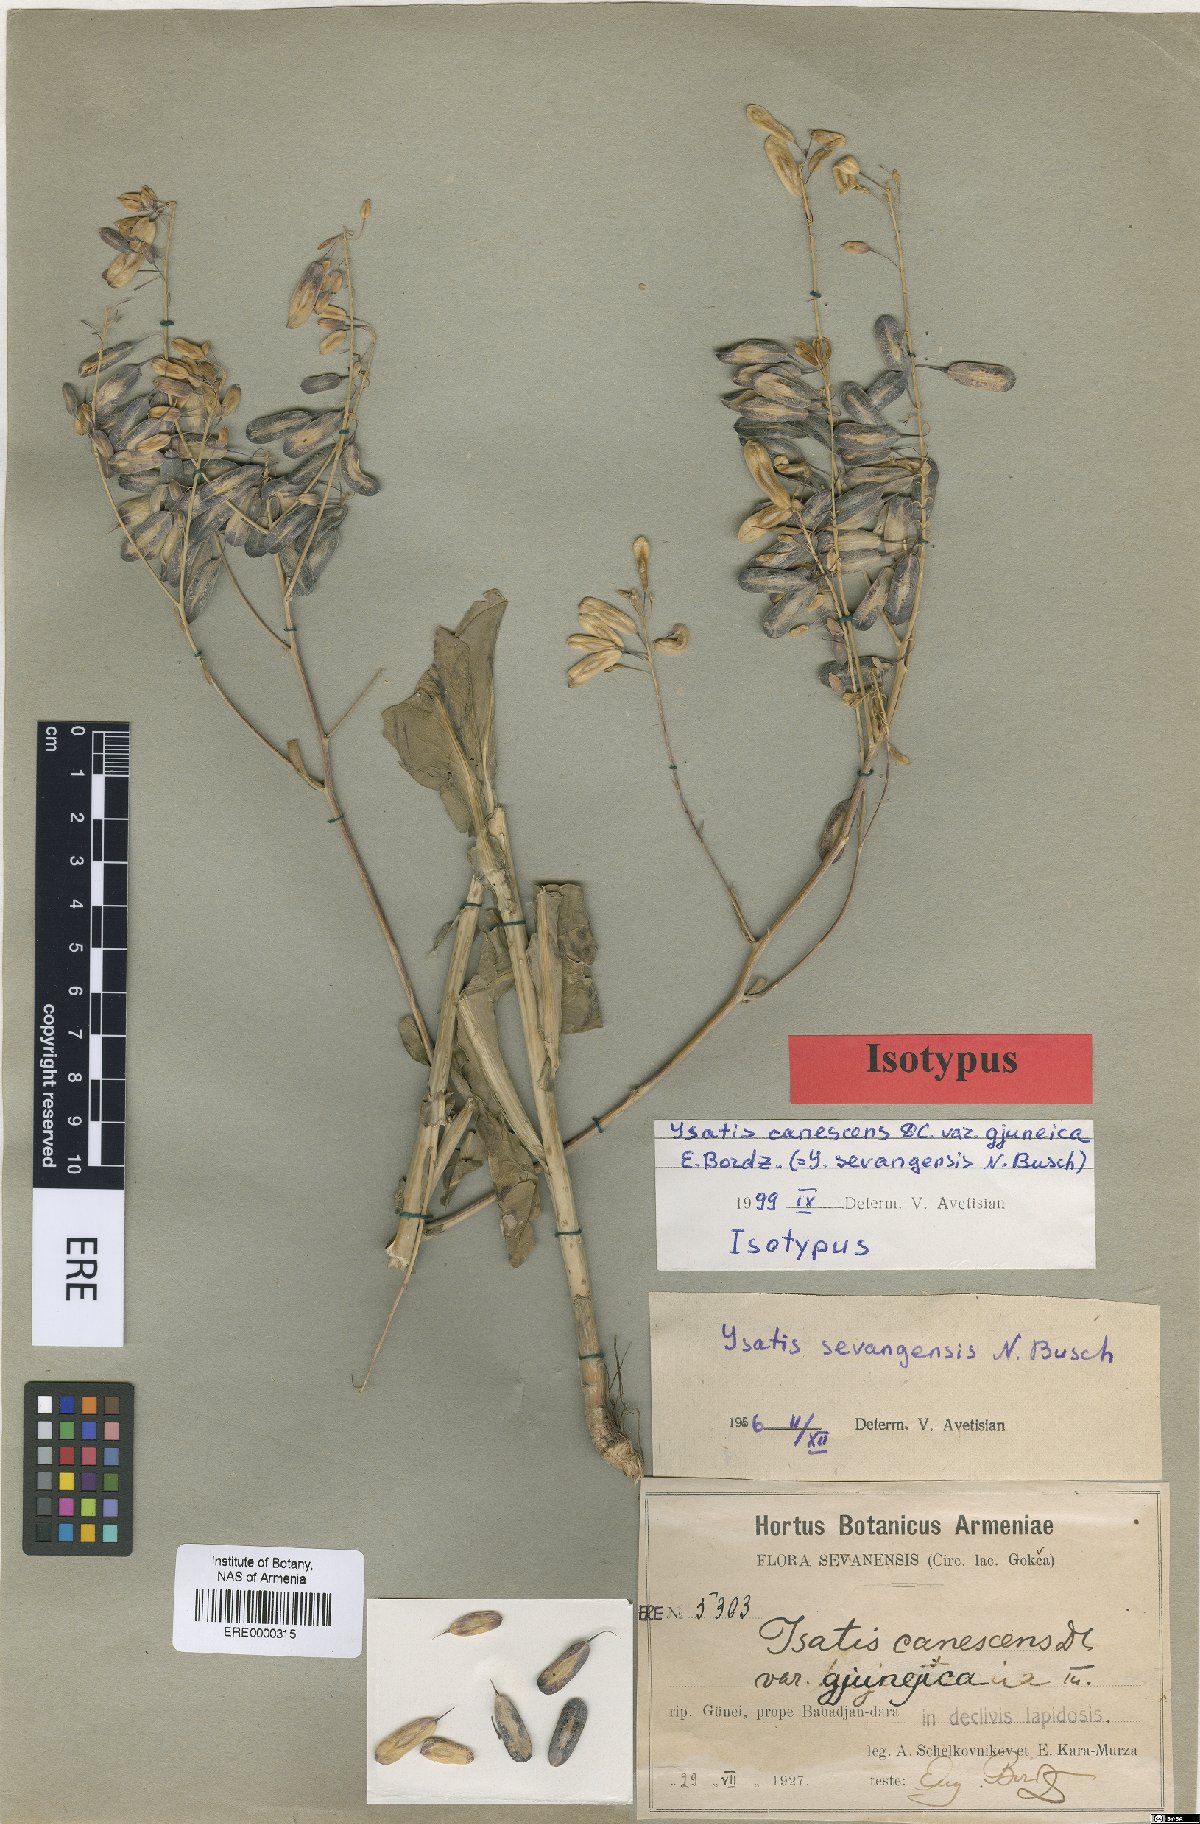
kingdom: Plantae
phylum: Tracheophyta
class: Magnoliopsida
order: Brassicales
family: Brassicaceae
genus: Isatis
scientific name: Isatis sevangensis
